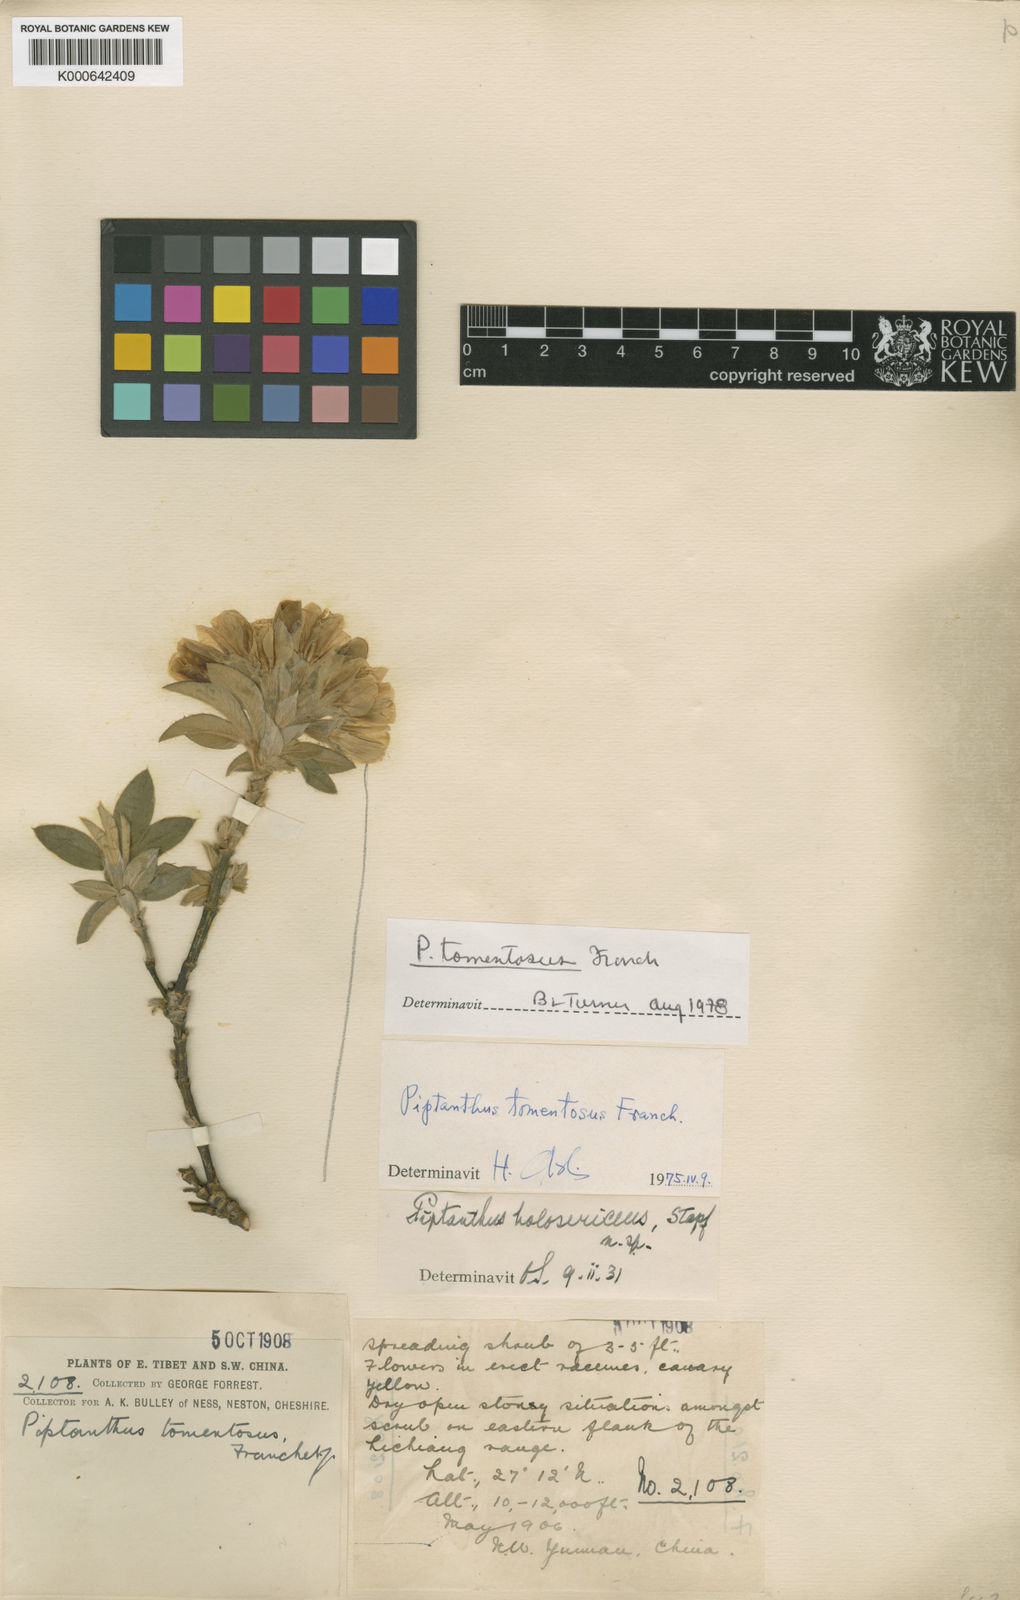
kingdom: Plantae
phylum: Tracheophyta
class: Magnoliopsida
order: Fabales
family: Fabaceae
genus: Piptanthus
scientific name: Piptanthus tomentosus
